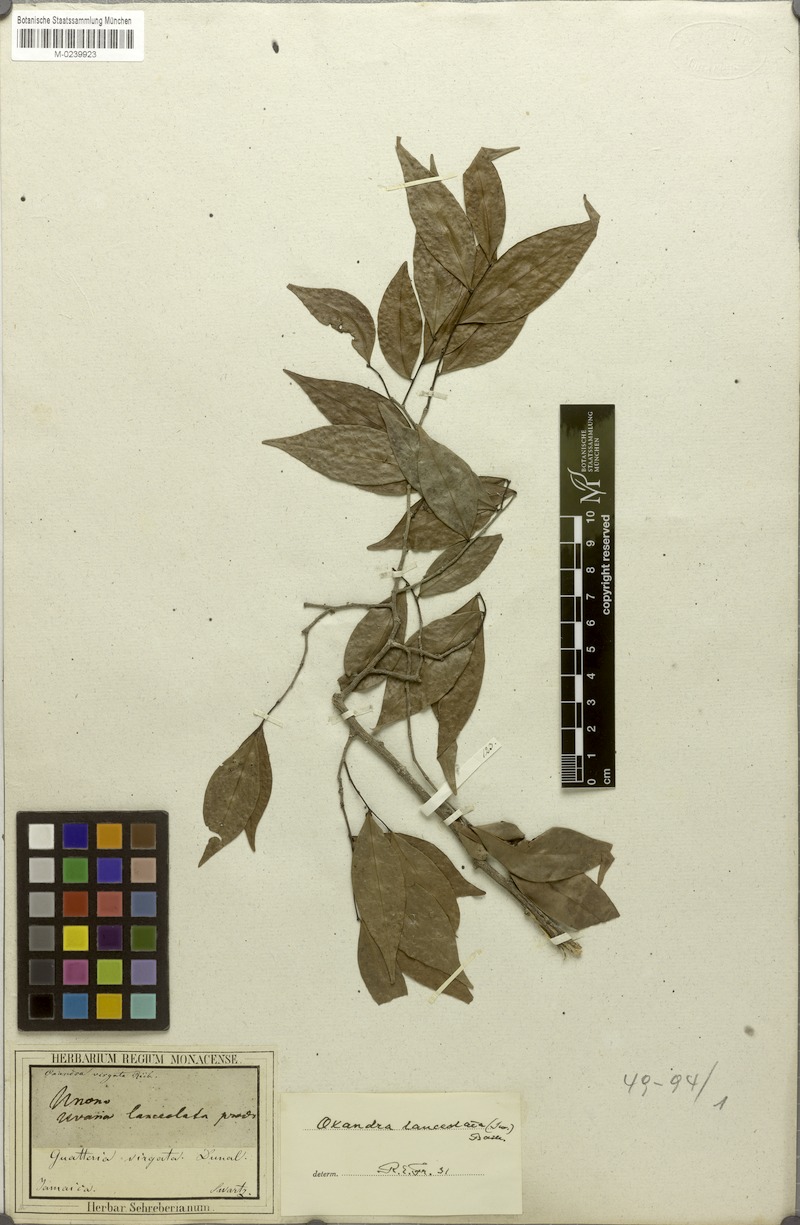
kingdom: Plantae
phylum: Tracheophyta
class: Magnoliopsida
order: Magnoliales
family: Annonaceae
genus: Oxandra
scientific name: Oxandra lanceolata
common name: Lancewood
